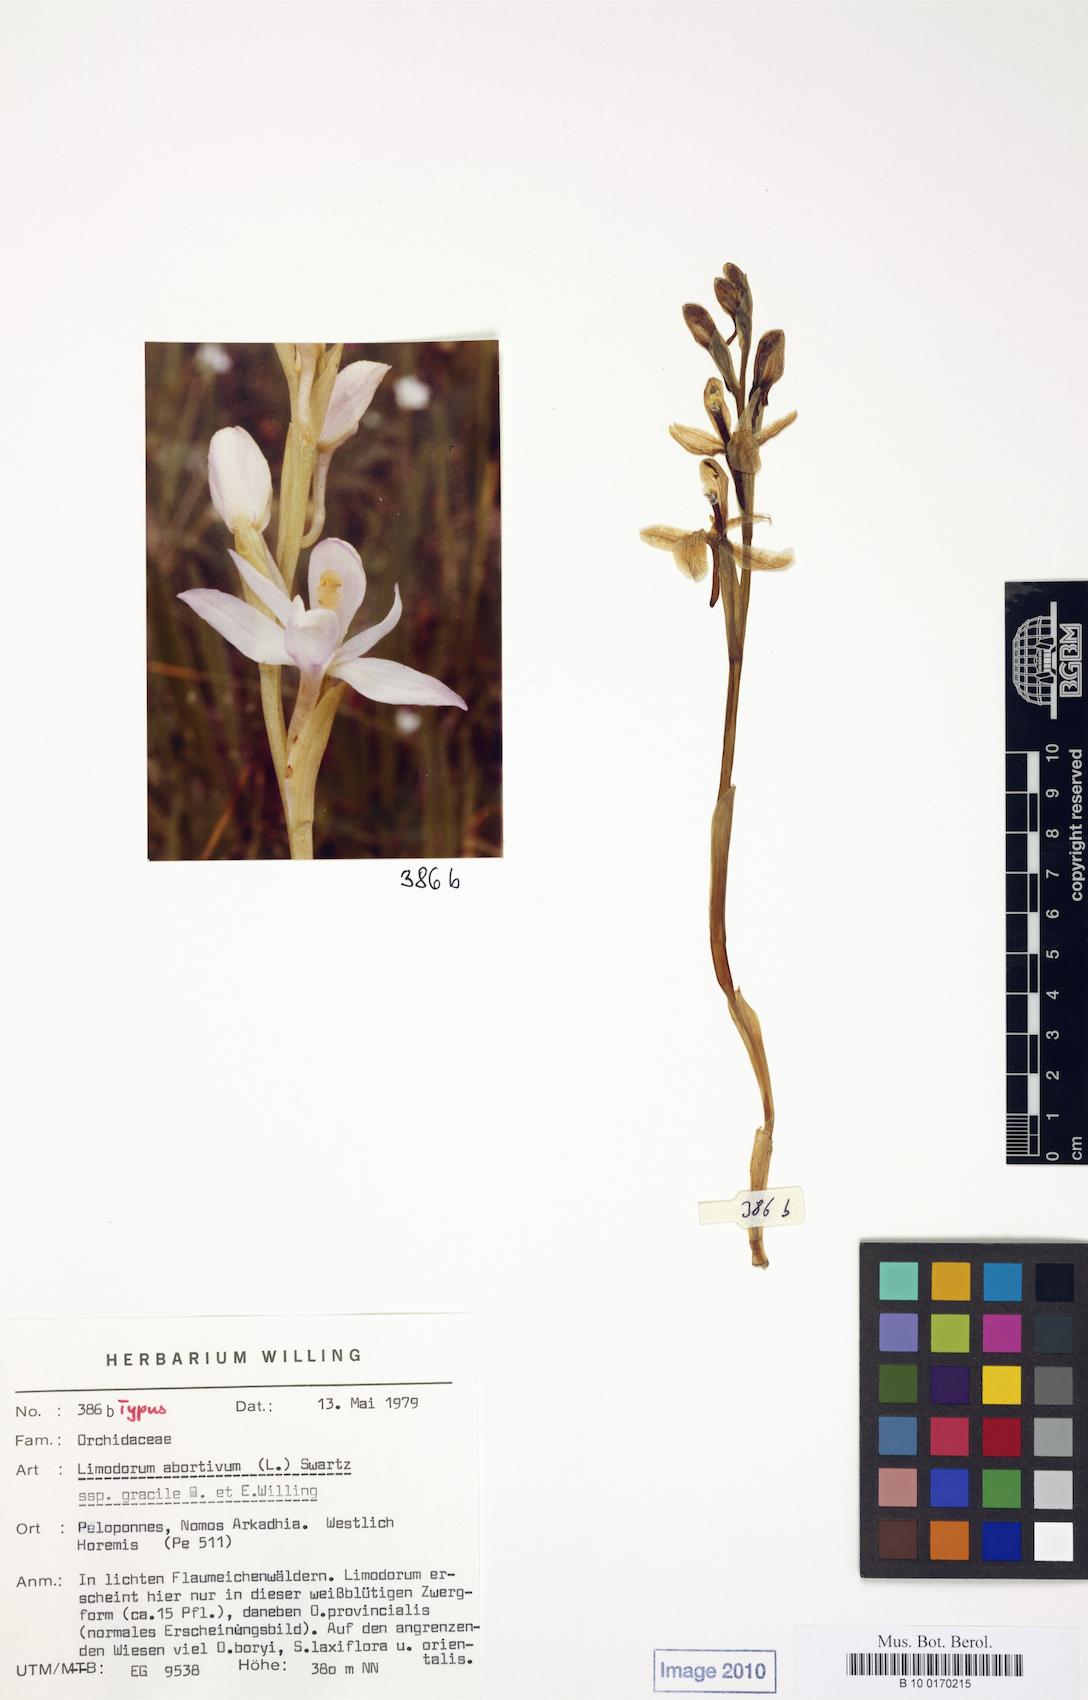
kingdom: Plantae
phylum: Tracheophyta
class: Liliopsida
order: Asparagales
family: Orchidaceae
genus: Limodorum
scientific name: Limodorum abortivum
